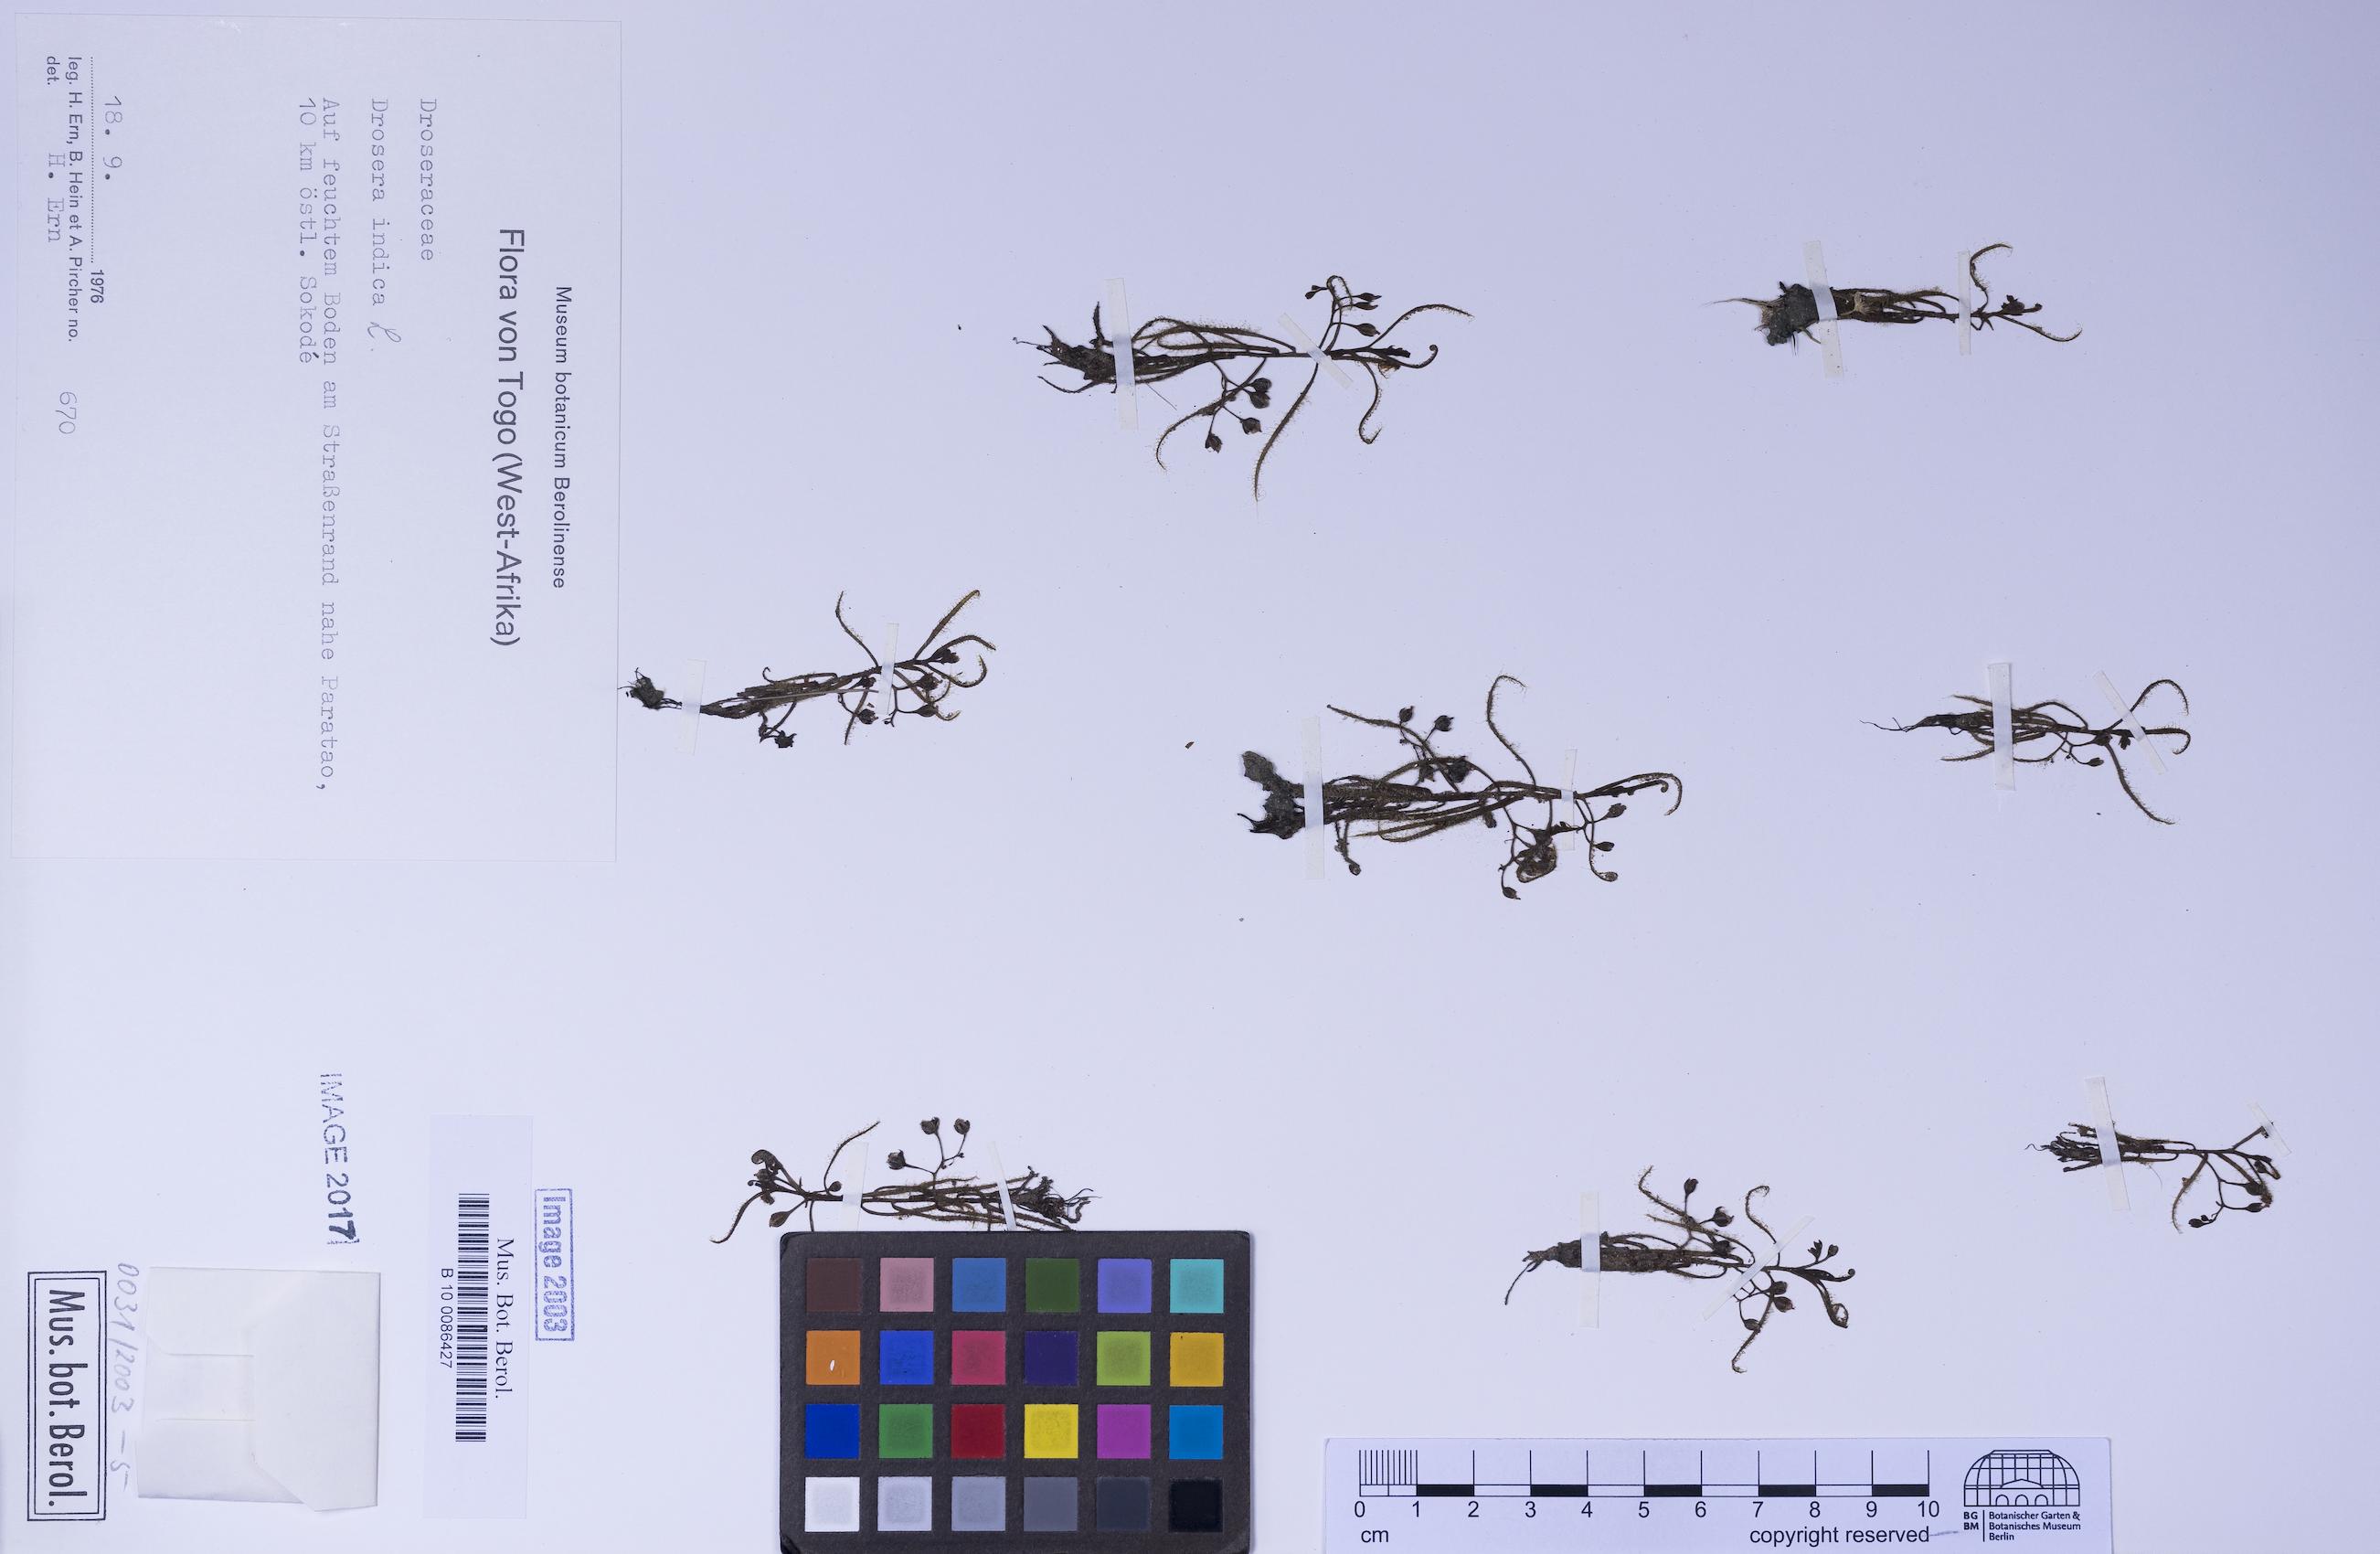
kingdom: Plantae
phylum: Tracheophyta
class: Magnoliopsida
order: Caryophyllales
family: Droseraceae
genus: Drosera
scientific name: Drosera indica
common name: Indian sundew
